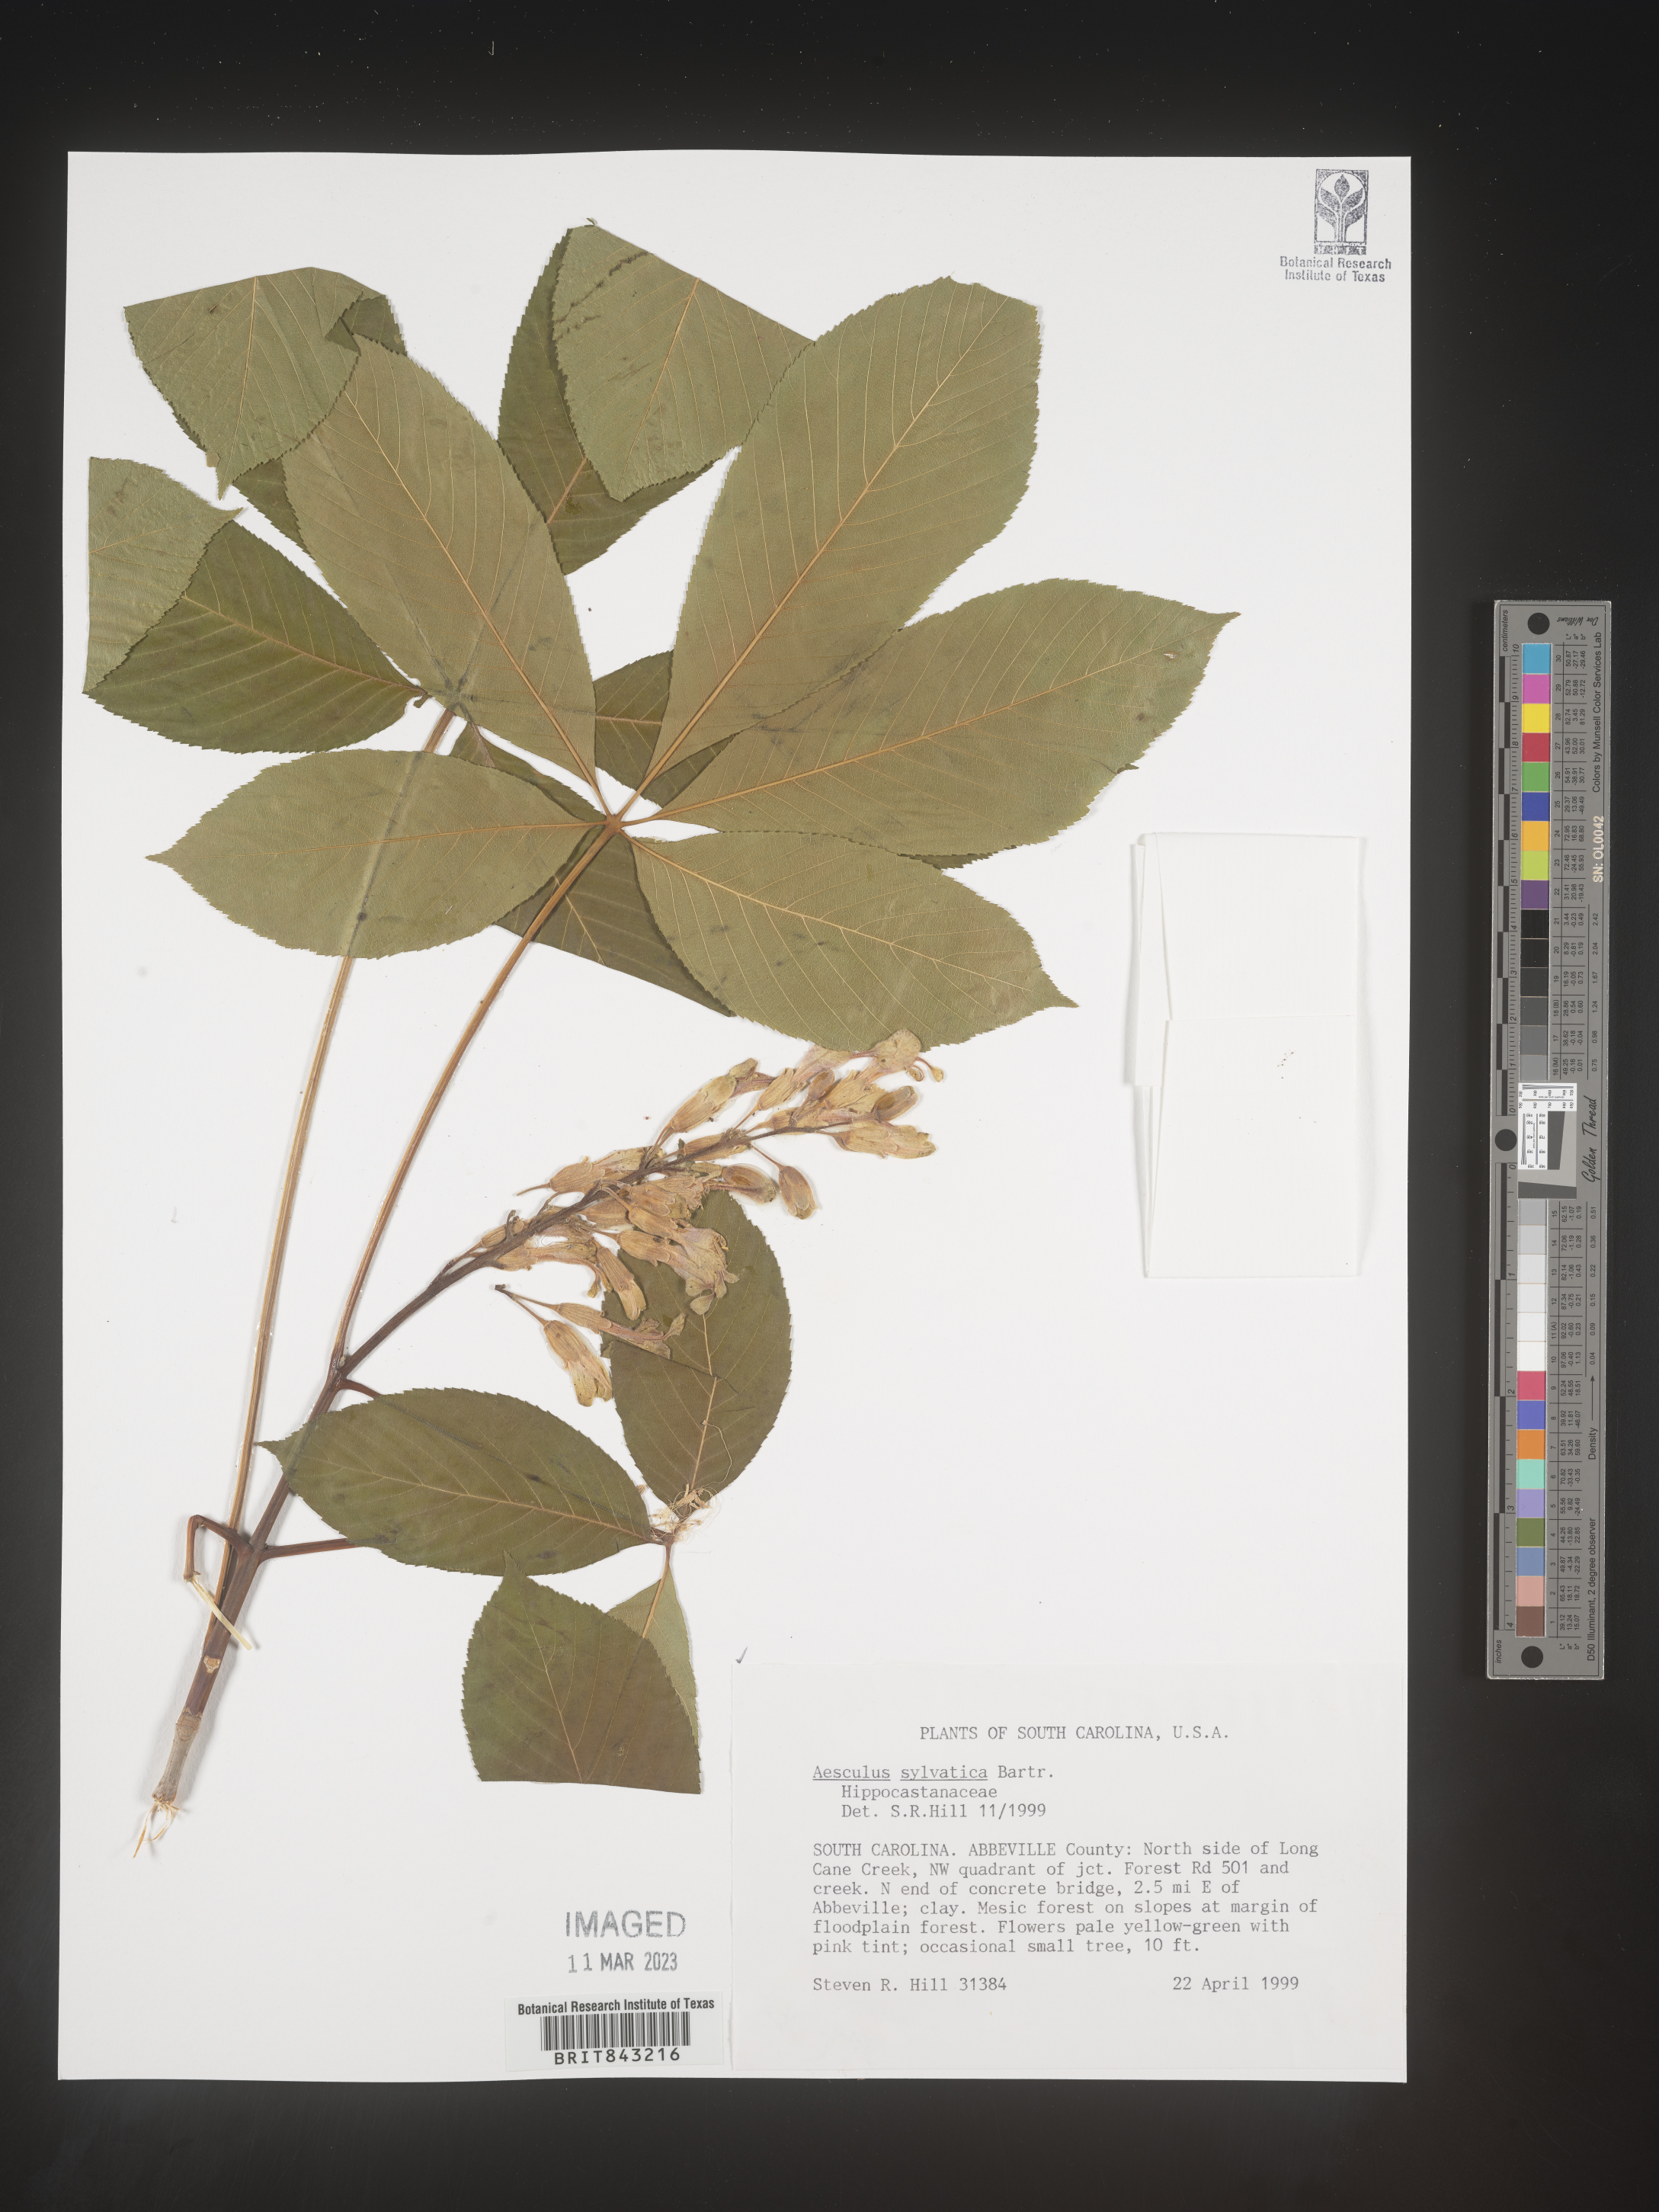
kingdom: Plantae
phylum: Tracheophyta
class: Magnoliopsida
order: Sapindales
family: Sapindaceae
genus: Aesculus
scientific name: Aesculus
